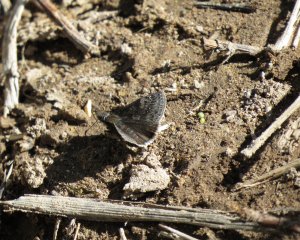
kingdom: Animalia
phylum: Arthropoda
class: Insecta
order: Lepidoptera
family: Hesperiidae
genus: Gesta
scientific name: Gesta
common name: Juvenal's Duskywing
